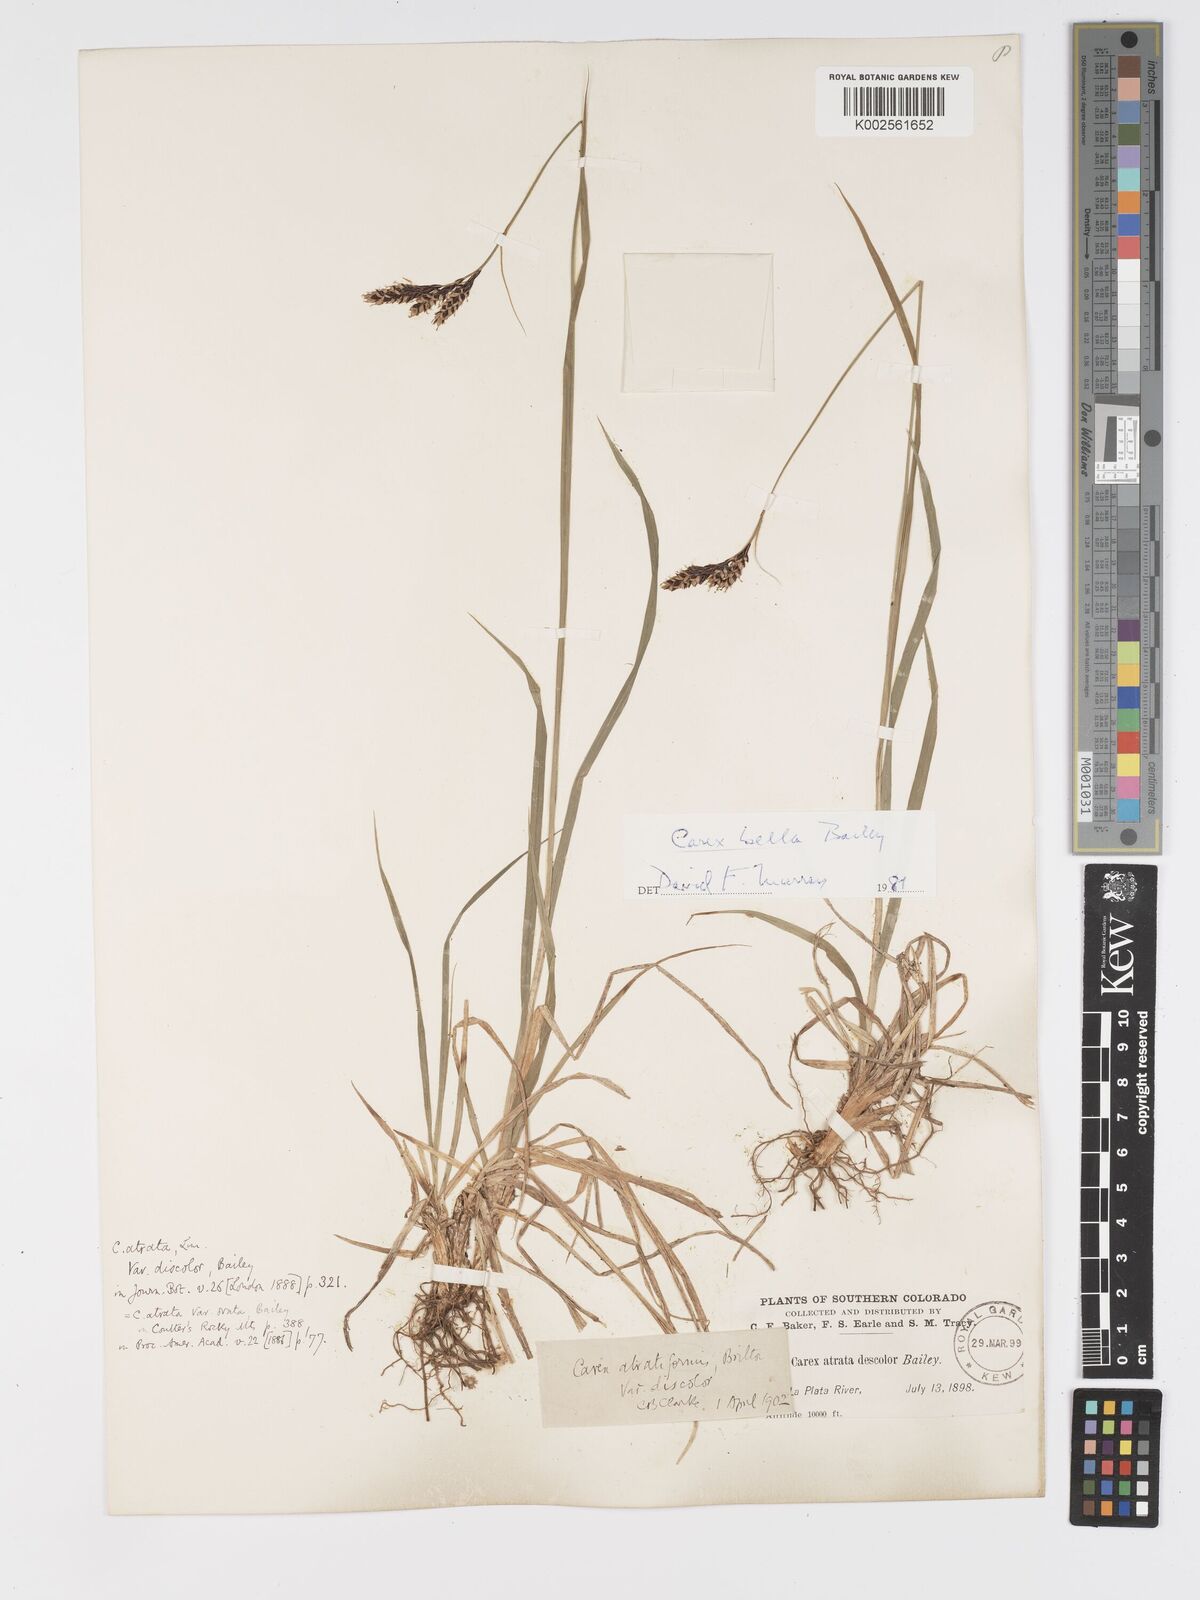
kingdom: Plantae
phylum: Tracheophyta
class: Liliopsida
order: Poales
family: Cyperaceae
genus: Carex
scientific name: Carex bella
